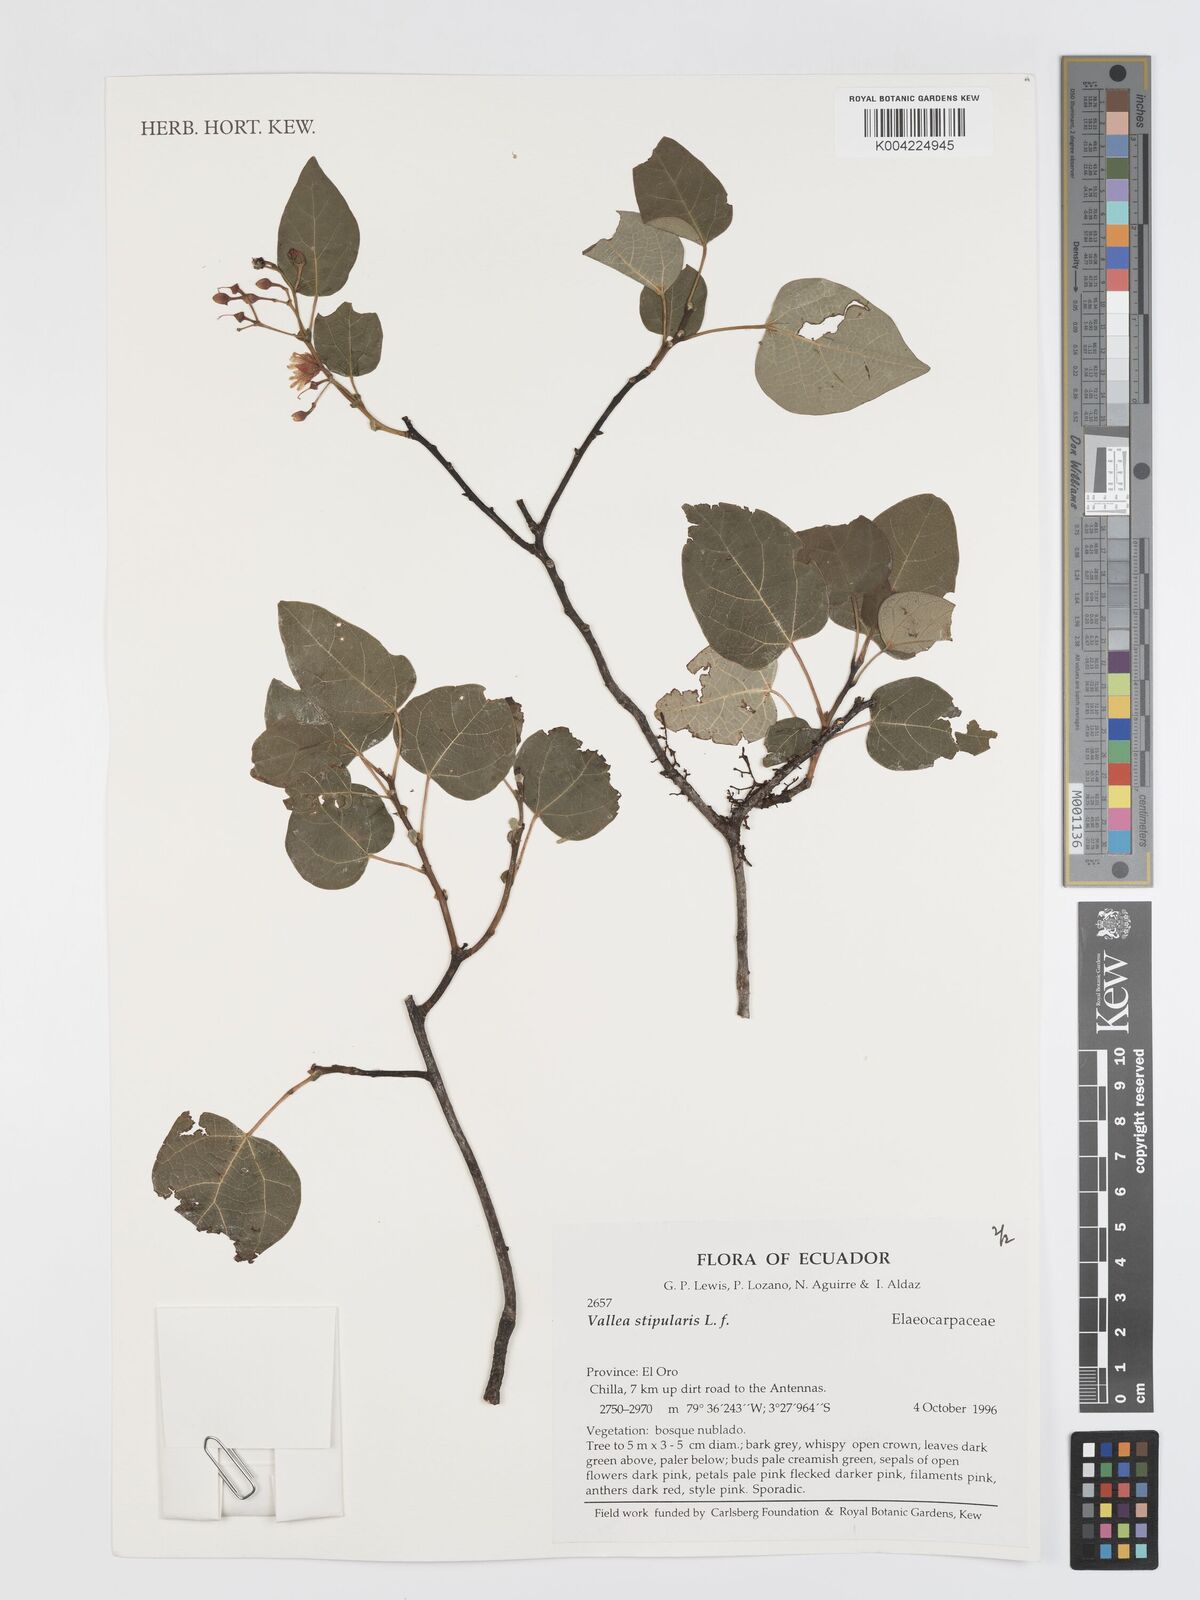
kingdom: Plantae
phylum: Tracheophyta
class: Magnoliopsida
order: Oxalidales
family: Elaeocarpaceae
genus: Vallea
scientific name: Vallea stipularis
